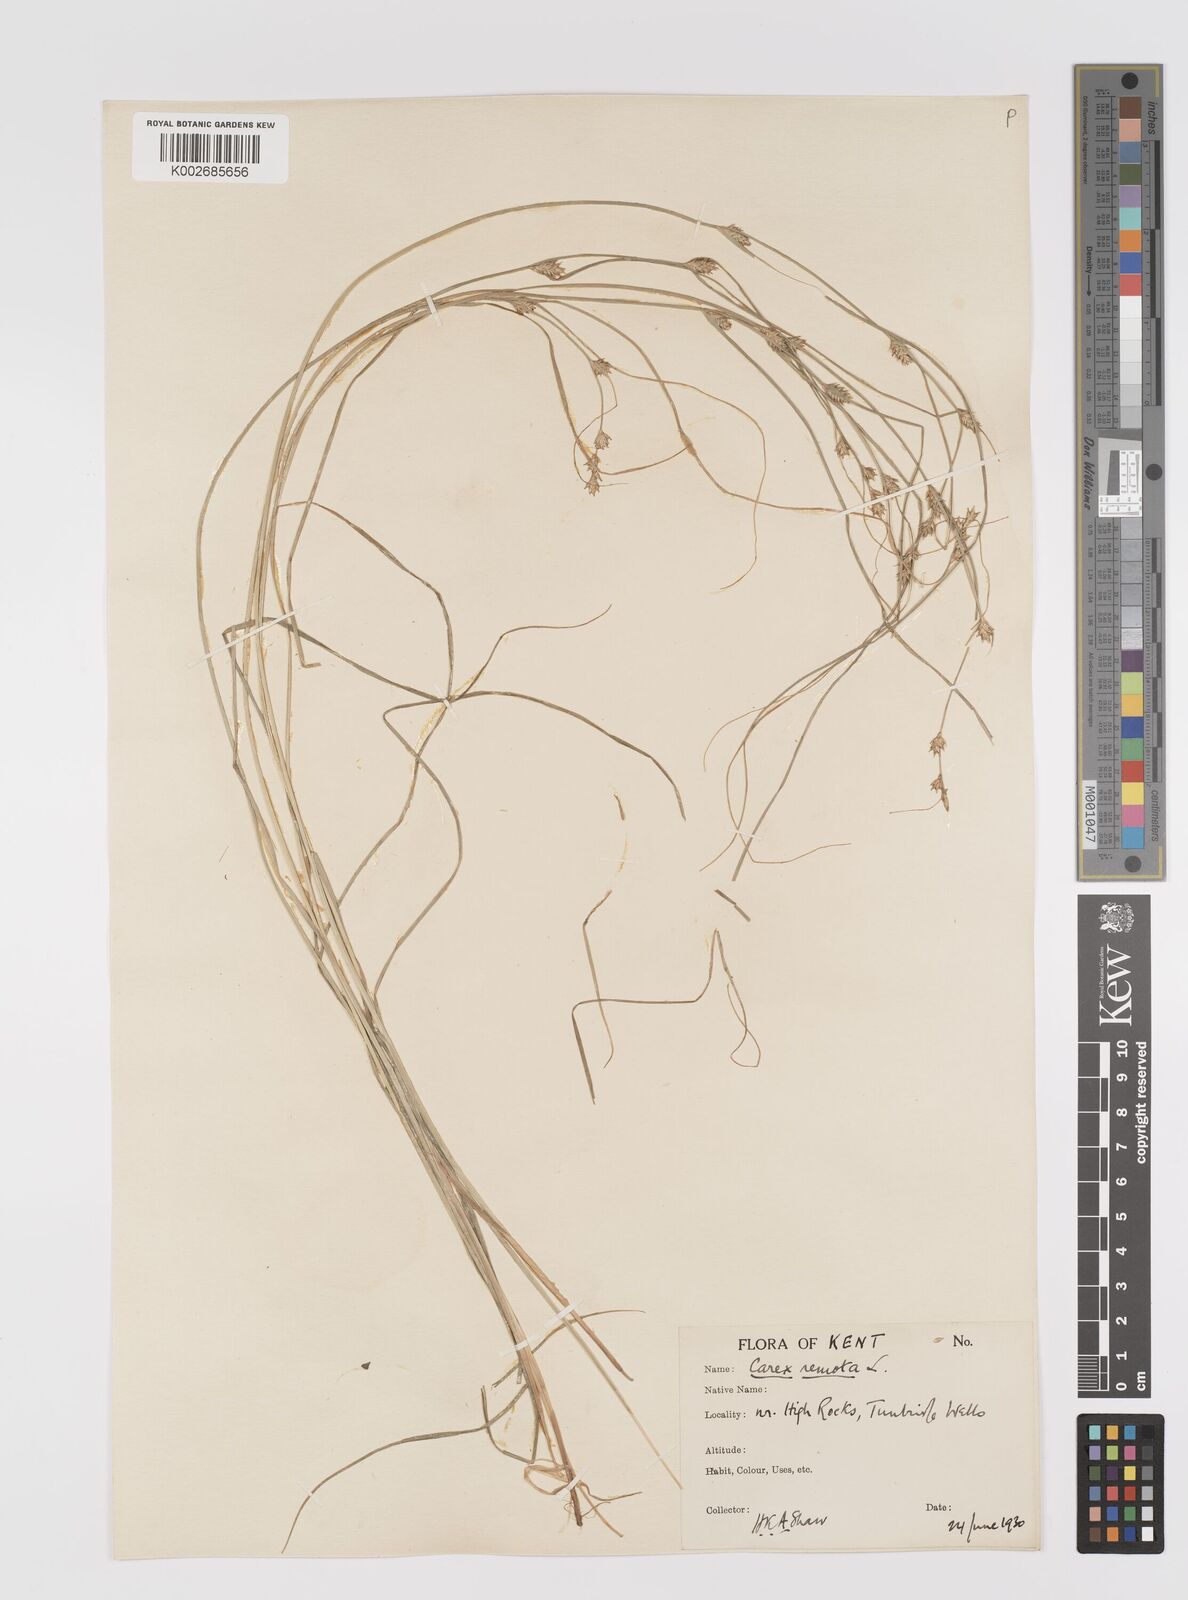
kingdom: Plantae
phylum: Tracheophyta
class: Liliopsida
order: Poales
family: Cyperaceae
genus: Carex
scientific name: Carex remota
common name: Remote sedge
